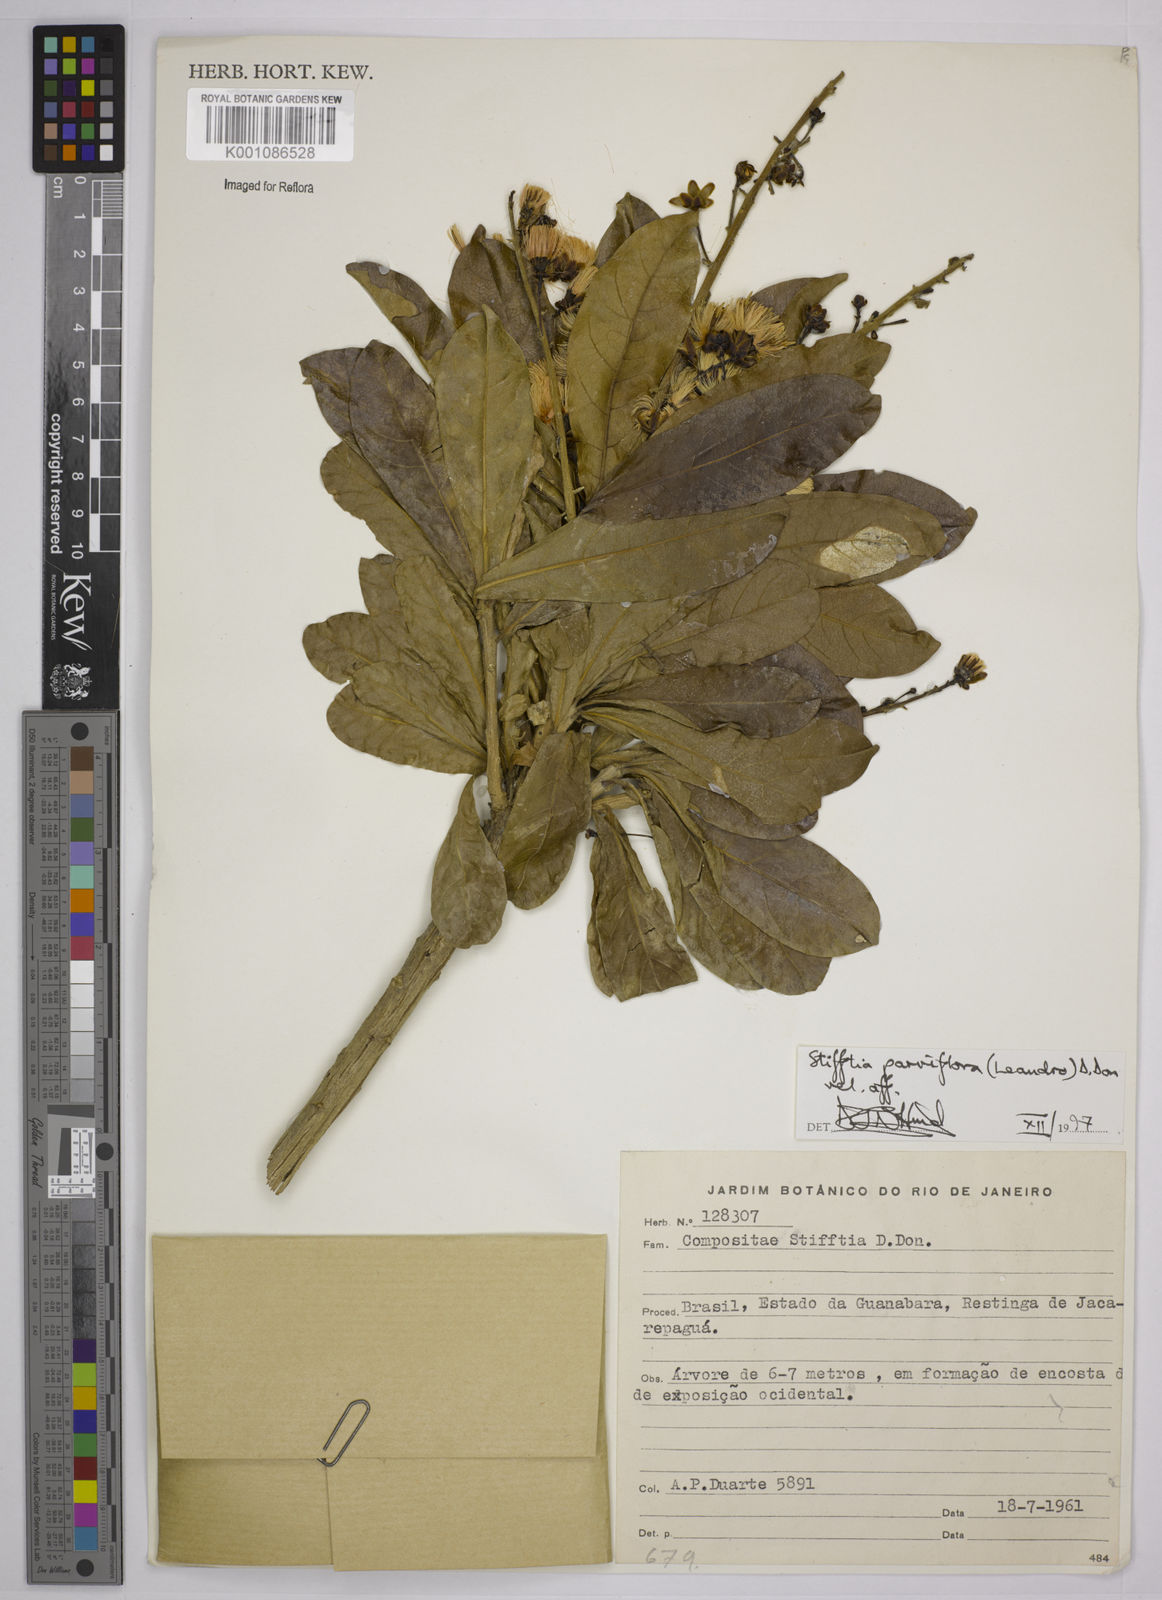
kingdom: Plantae
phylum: Tracheophyta
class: Magnoliopsida
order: Asterales
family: Asteraceae
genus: Stifftia
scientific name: Stifftia parviflora
